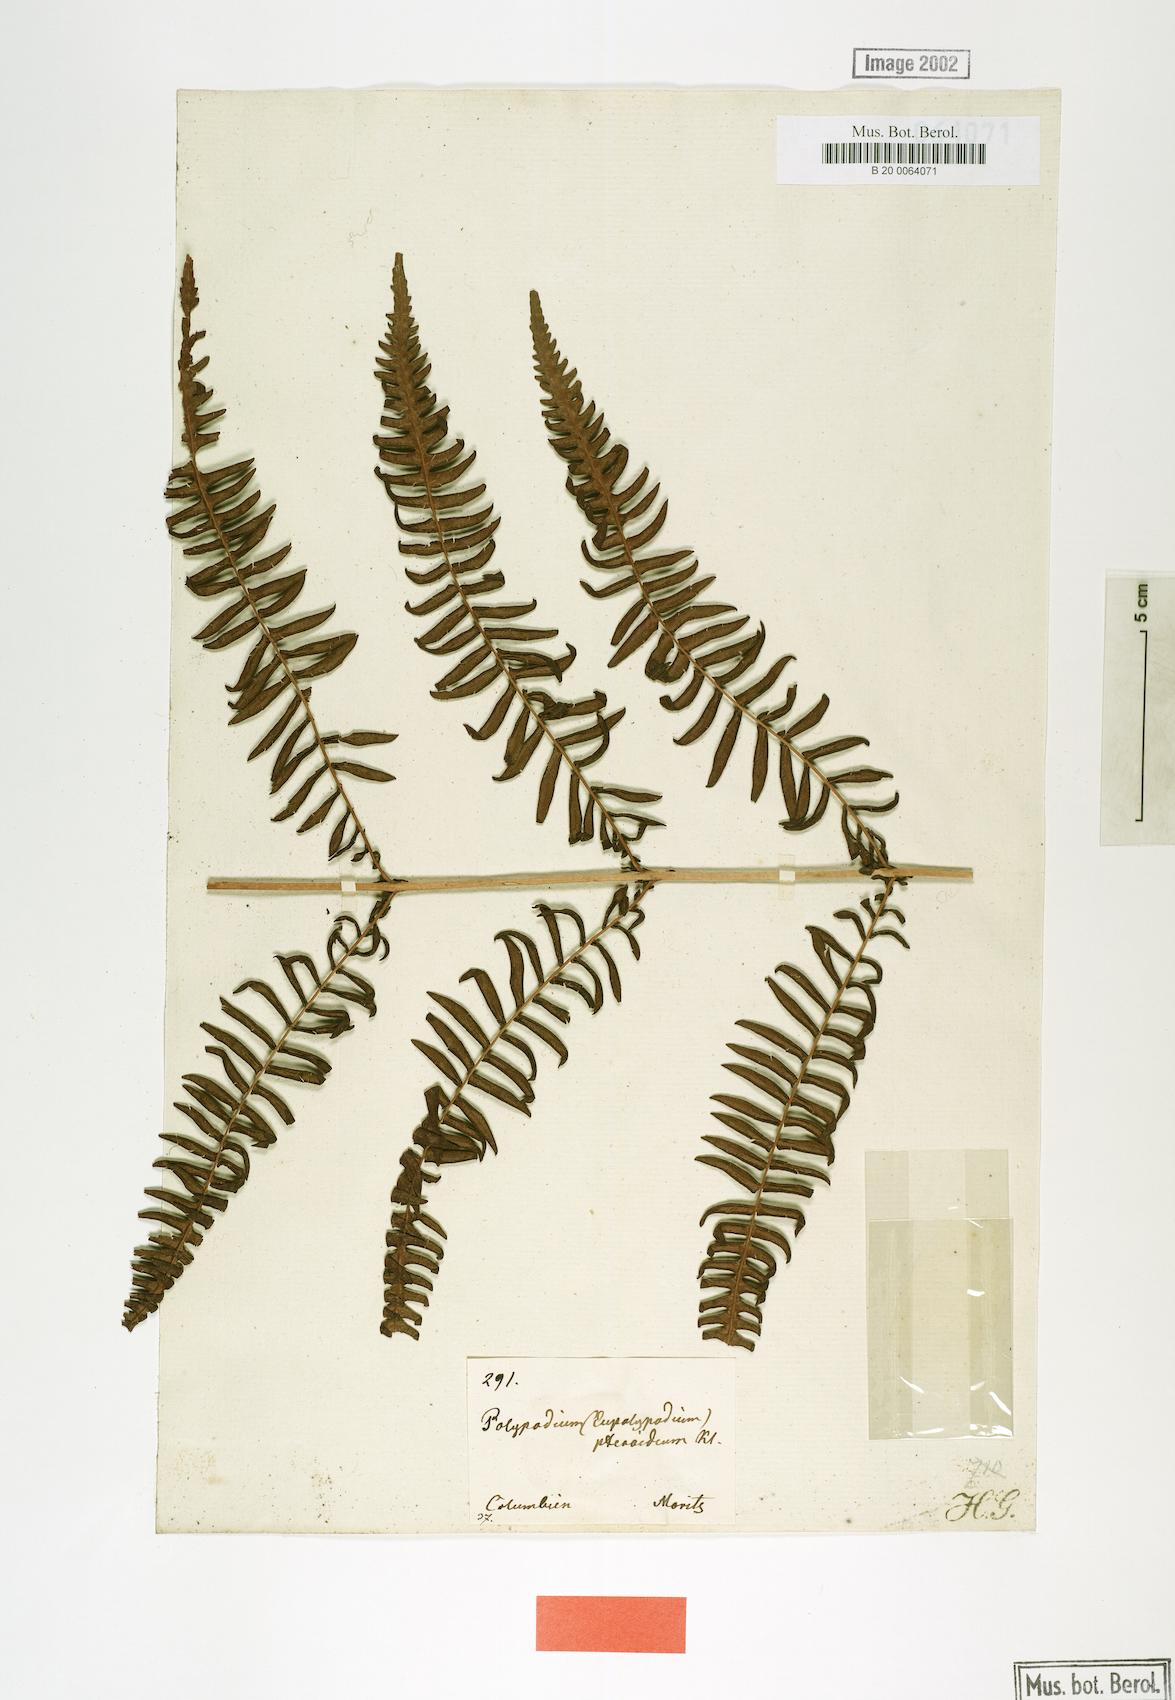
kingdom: Plantae
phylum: Tracheophyta
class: Polypodiopsida
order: Polypodiales
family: Thelypteridaceae
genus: Amauropelta
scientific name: Amauropelta pteroidea
